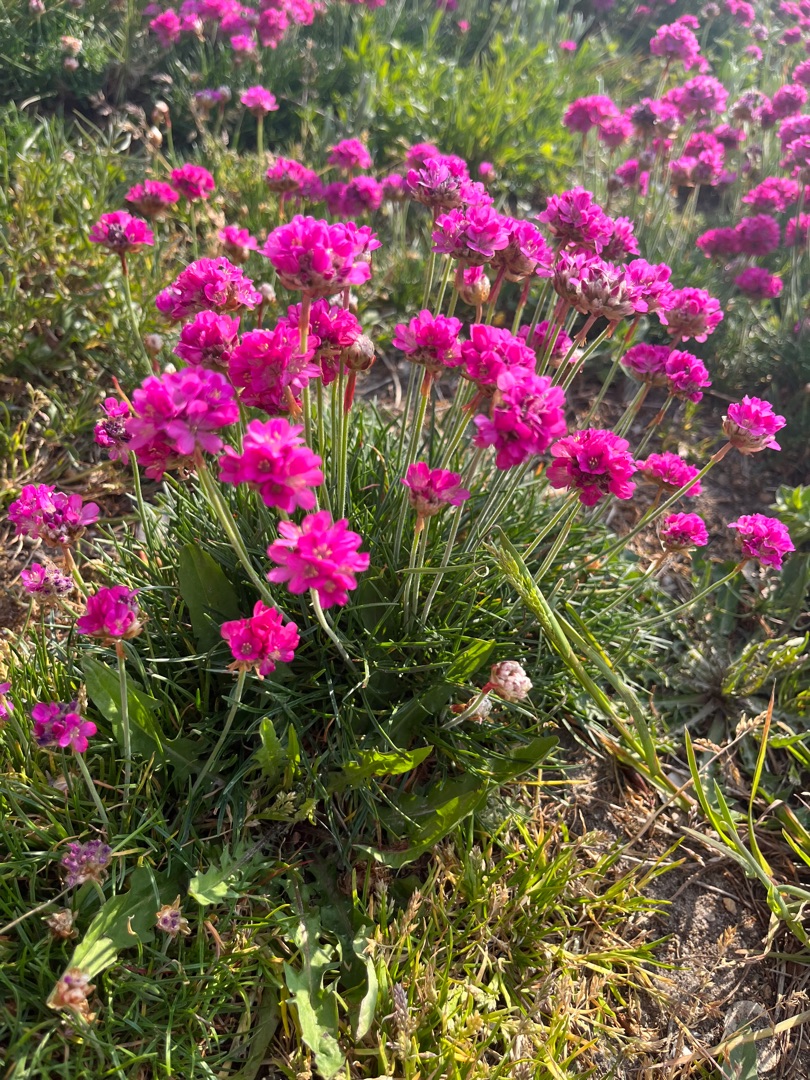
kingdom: Plantae
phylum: Tracheophyta
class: Magnoliopsida
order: Caryophyllales
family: Plumbaginaceae
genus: Armeria
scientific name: Armeria maritima
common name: Engelskgræs
